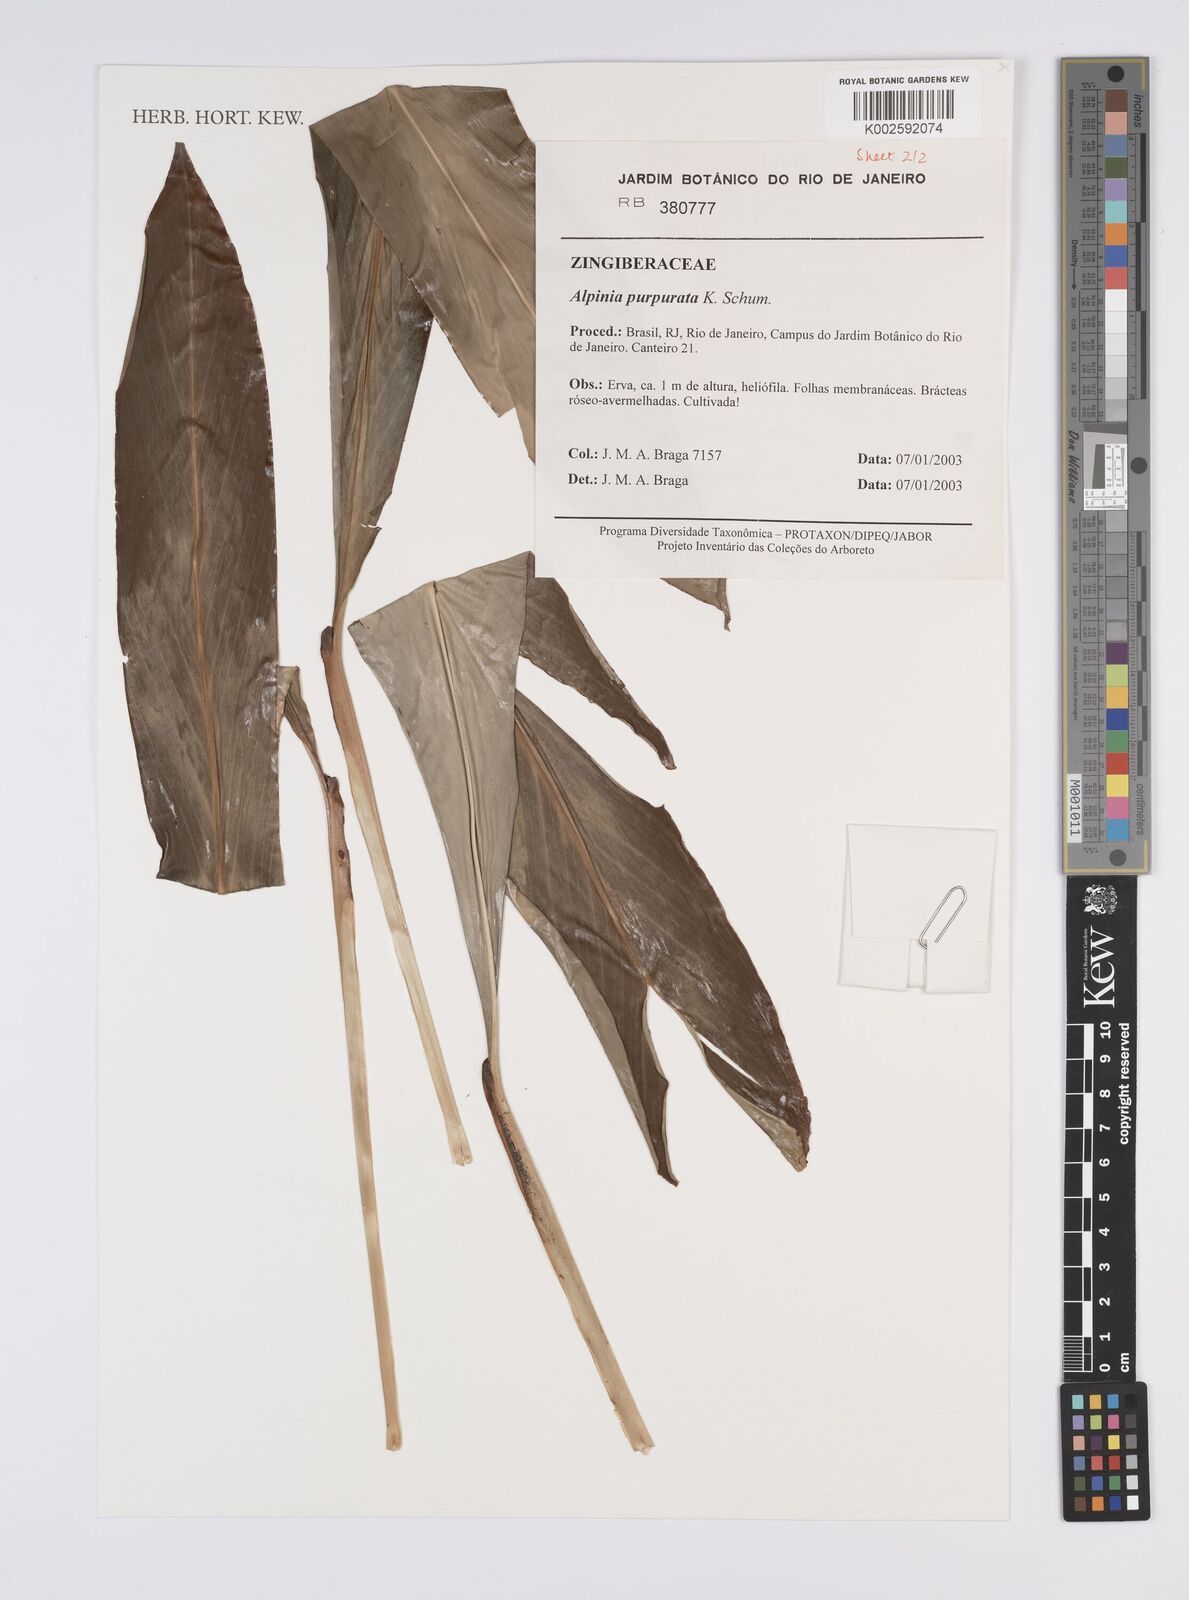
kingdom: Plantae
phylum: Tracheophyta
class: Liliopsida
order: Zingiberales
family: Zingiberaceae
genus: Alpinia
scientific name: Alpinia purpurata
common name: Red ginger
